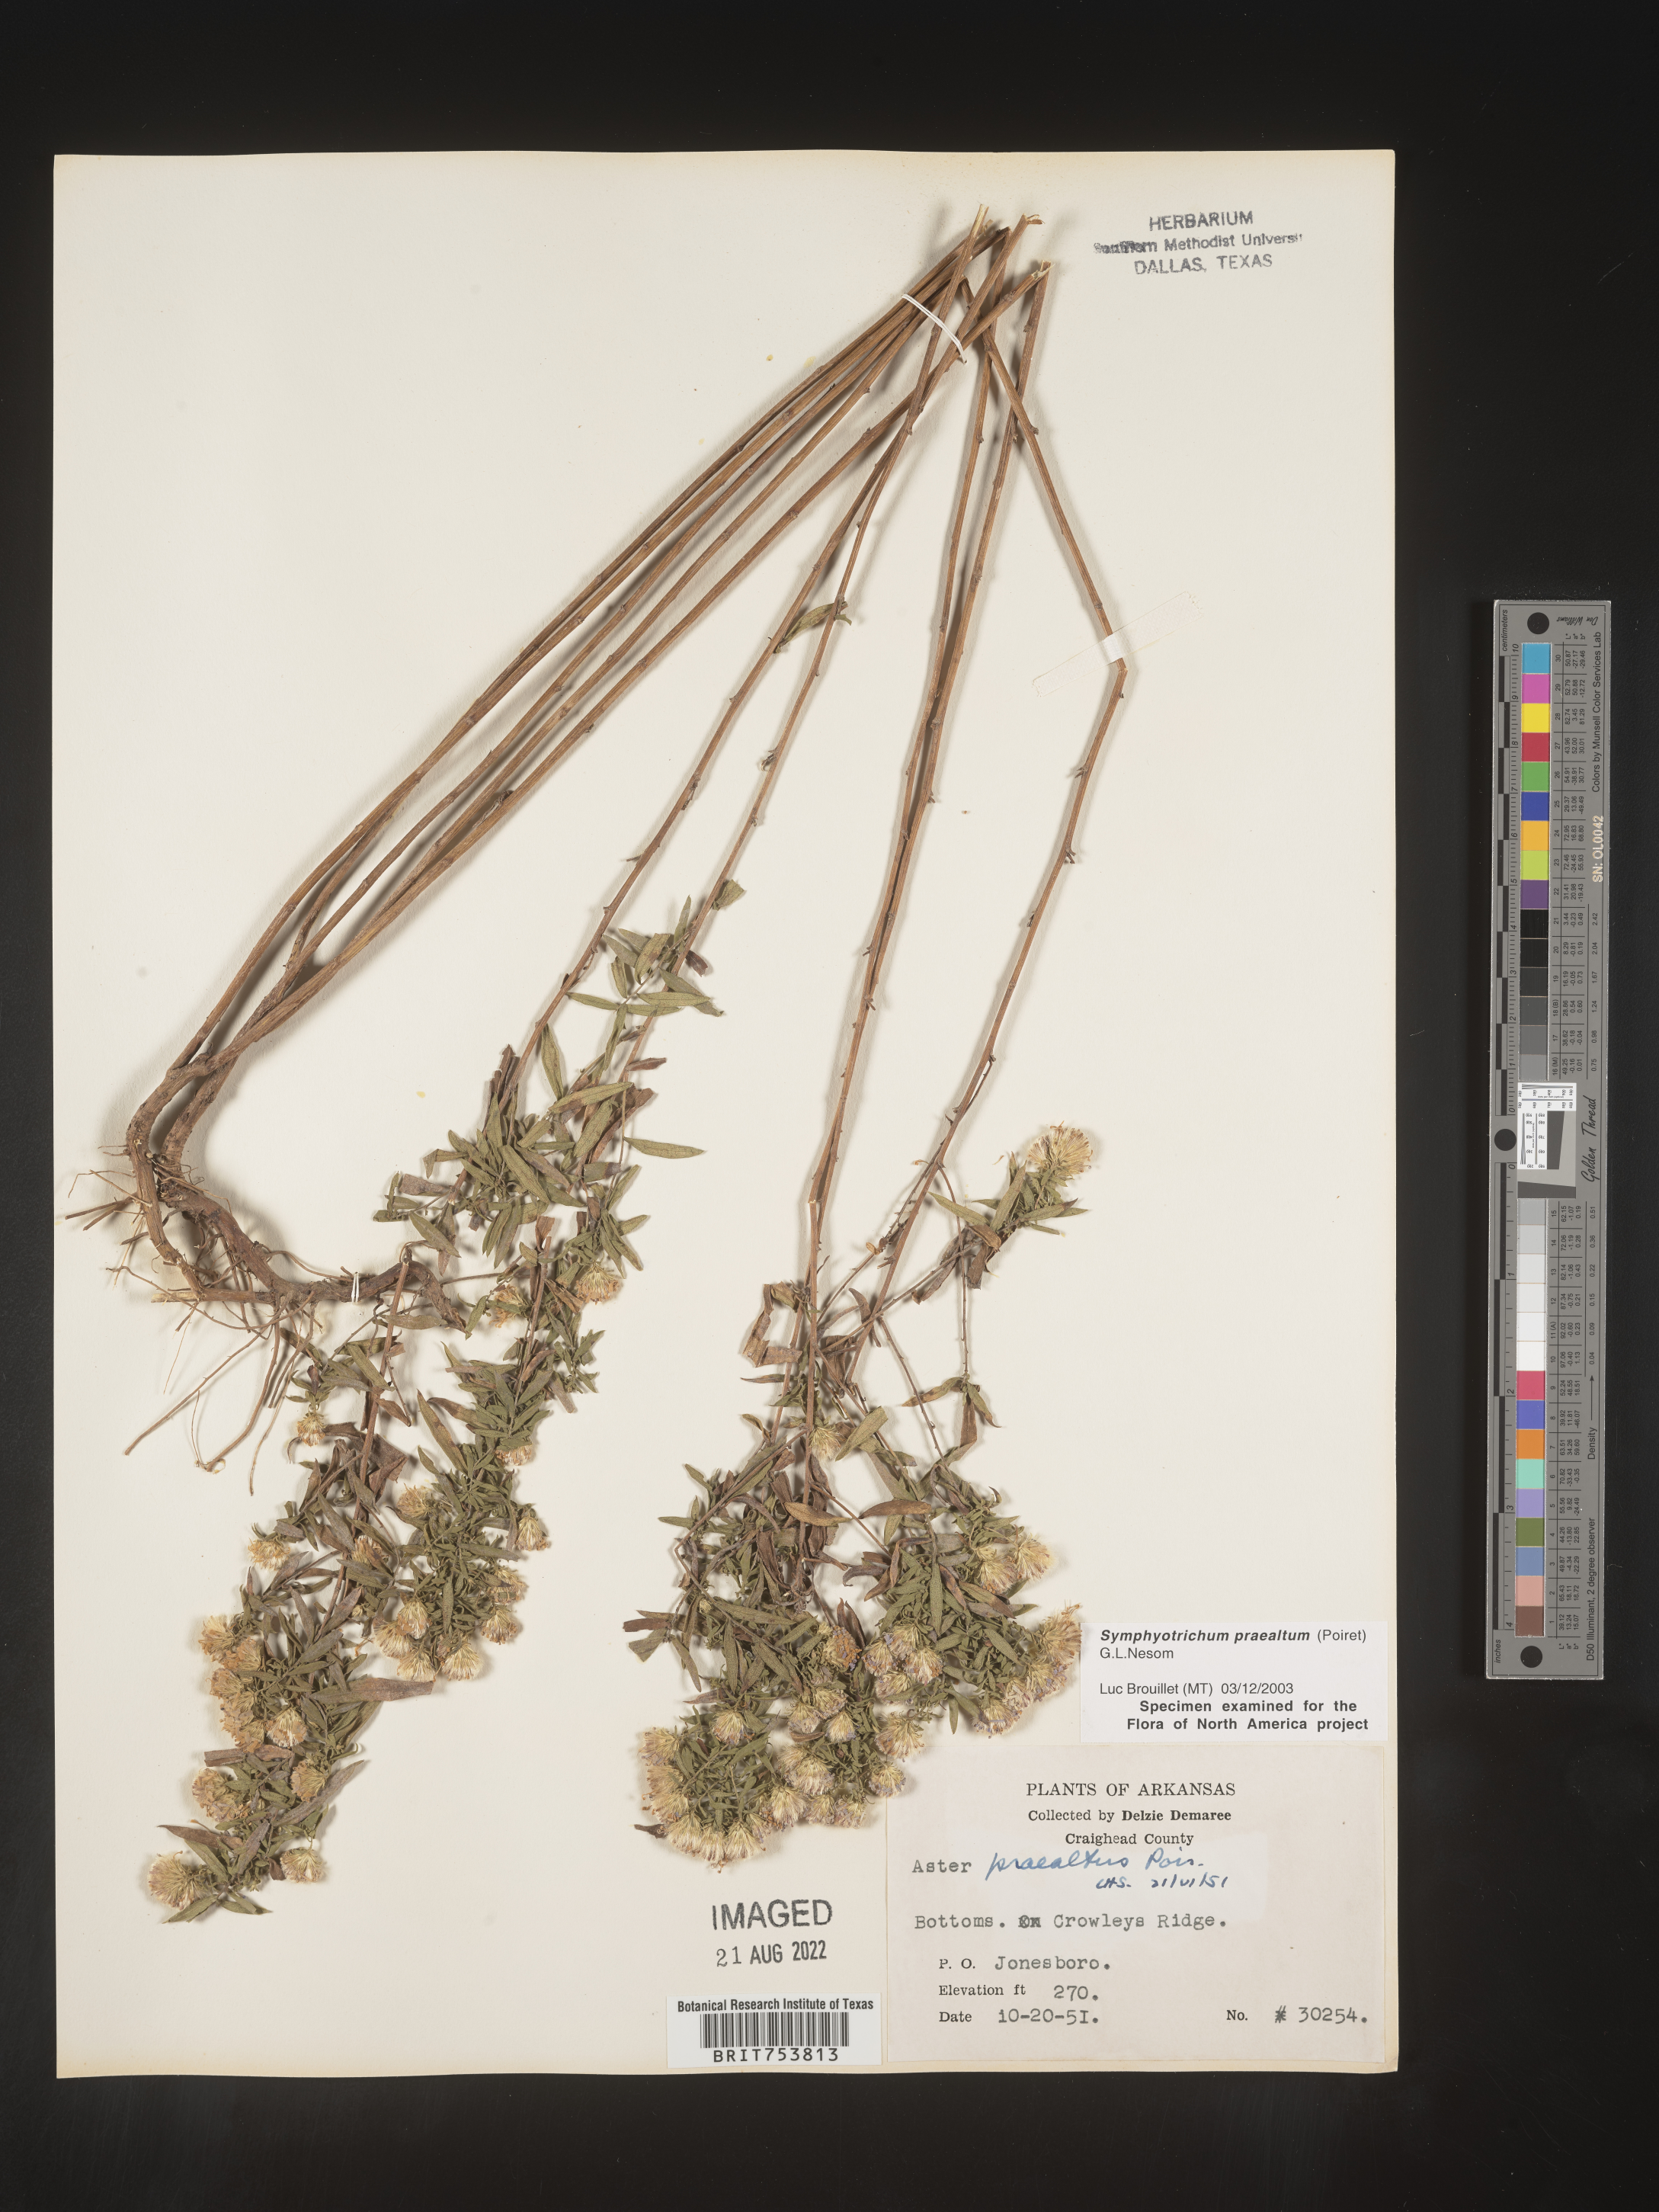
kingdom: Plantae
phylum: Tracheophyta
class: Magnoliopsida
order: Asterales
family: Asteraceae
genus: Symphyotrichum
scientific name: Symphyotrichum praealtum
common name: Willow aster
